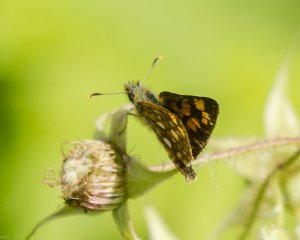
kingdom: Animalia
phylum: Arthropoda
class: Insecta
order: Lepidoptera
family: Hesperiidae
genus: Carterocephalus
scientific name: Carterocephalus palaemon
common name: Chequered Skipper
